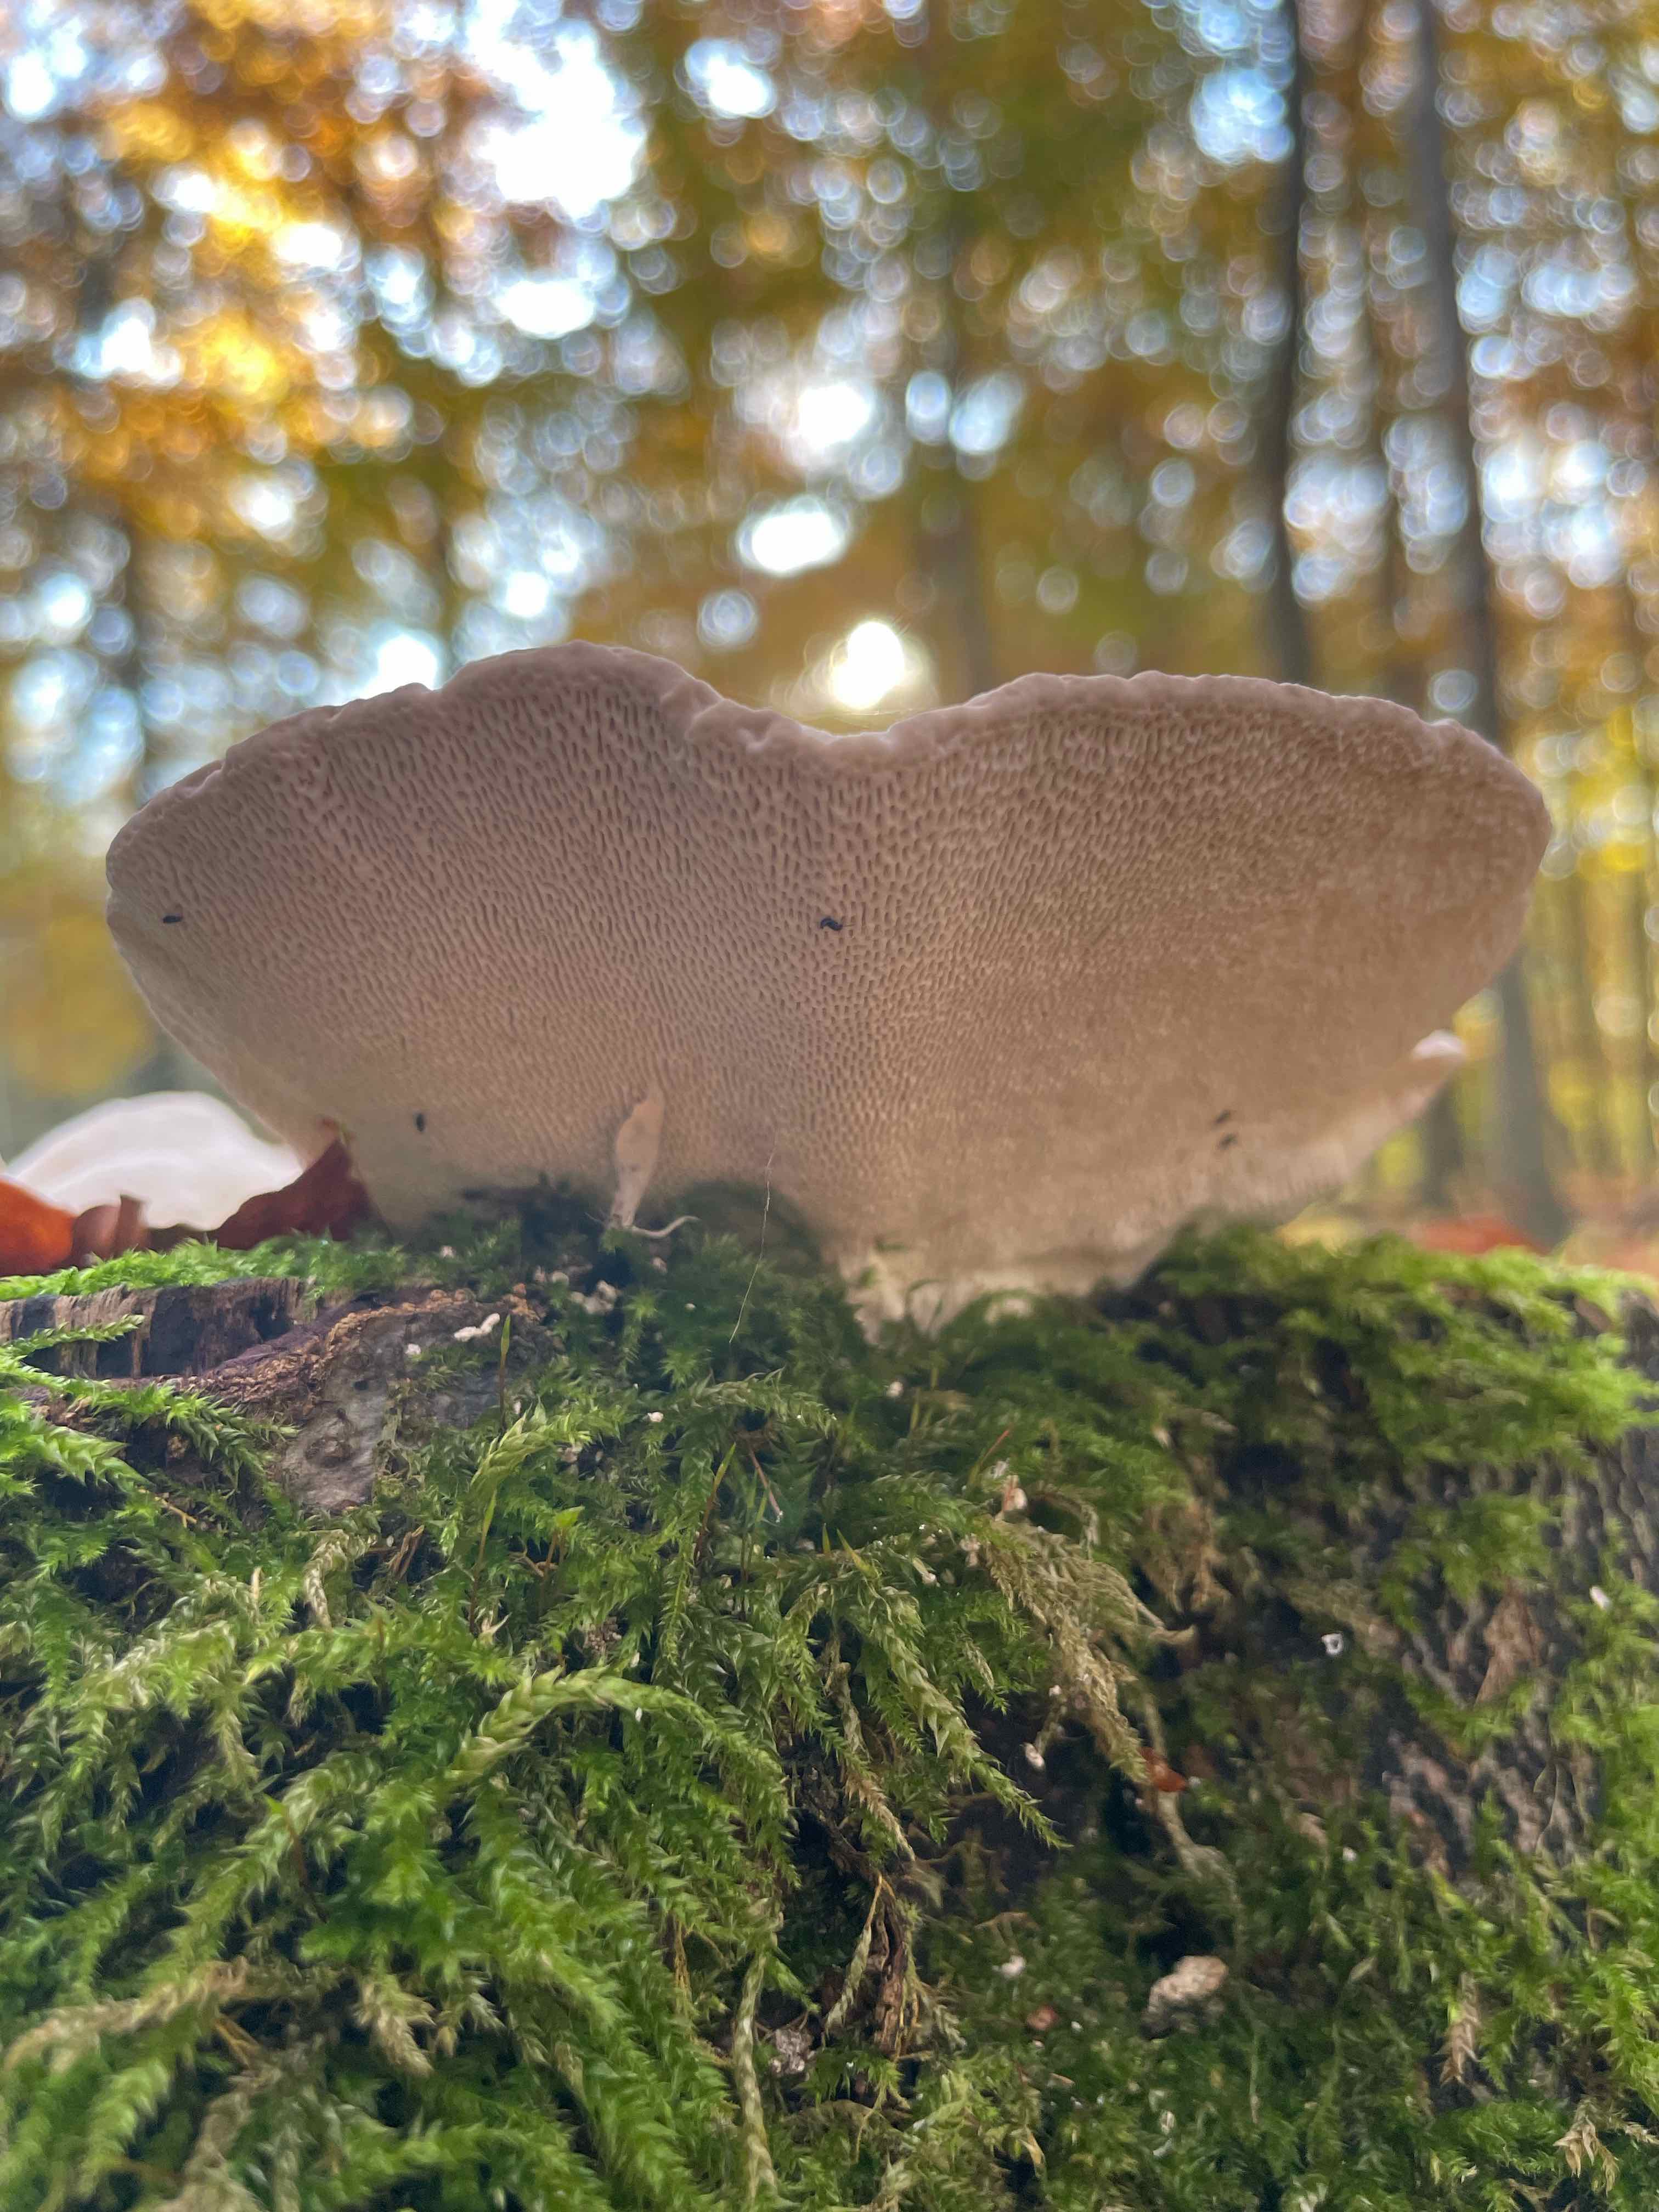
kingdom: Fungi
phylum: Basidiomycota
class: Agaricomycetes
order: Polyporales
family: Polyporaceae
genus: Trametes
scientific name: Trametes gibbosa
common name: puklet læderporesvamp
